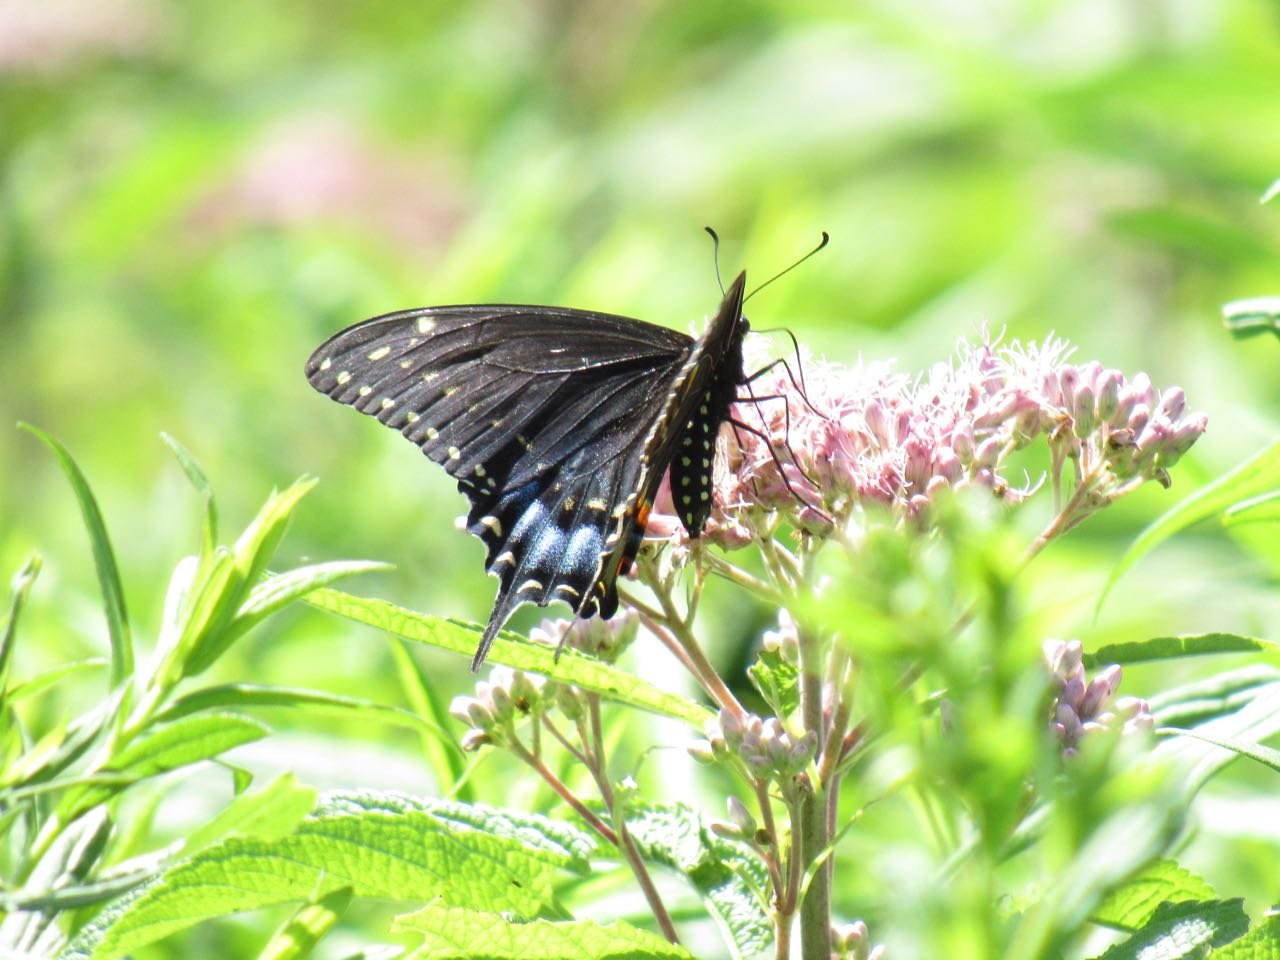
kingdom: Animalia
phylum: Arthropoda
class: Insecta
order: Lepidoptera
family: Papilionidae
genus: Papilio
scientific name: Papilio polyxenes
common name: Black Swallowtail
